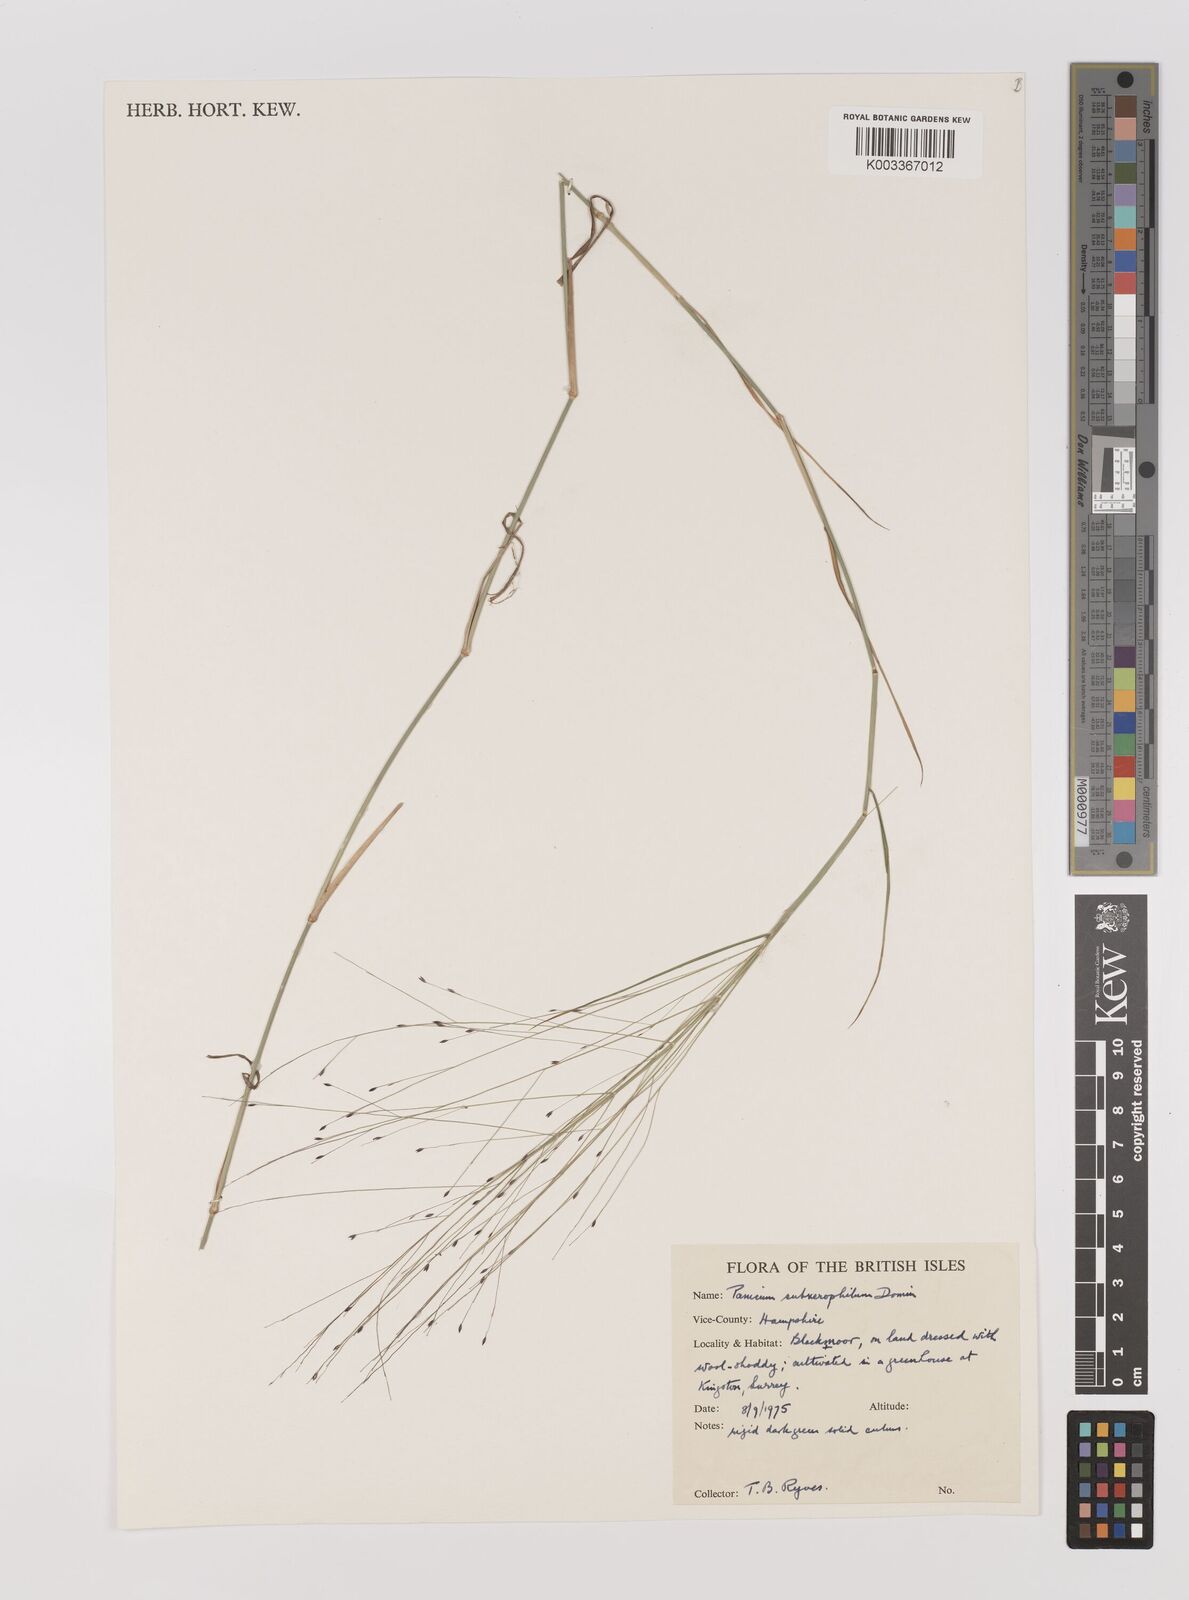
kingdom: Plantae
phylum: Tracheophyta
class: Liliopsida
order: Poales
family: Poaceae
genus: Walwhalleya
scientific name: Walwhalleya subxerophila
